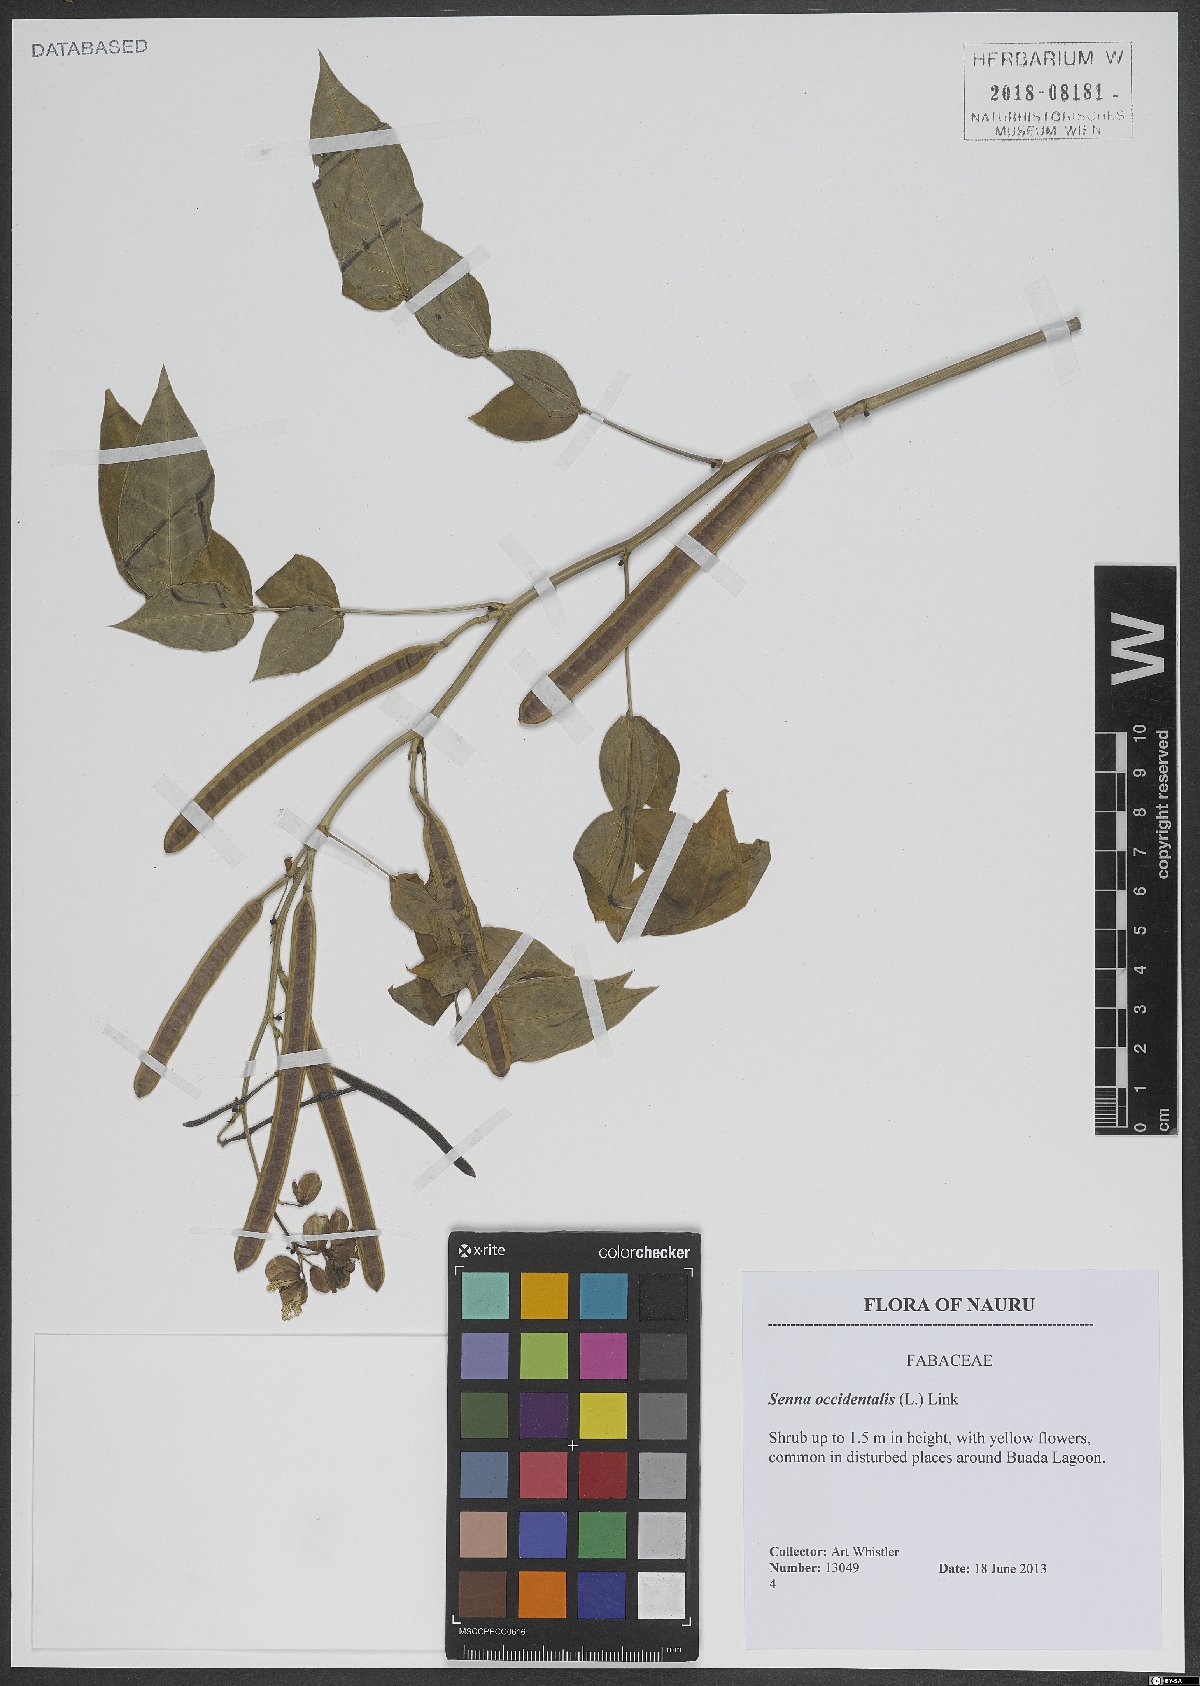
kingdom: Plantae
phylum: Tracheophyta
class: Magnoliopsida
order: Fabales
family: Fabaceae
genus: Senna
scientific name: Senna occidentalis
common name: Septicweed
